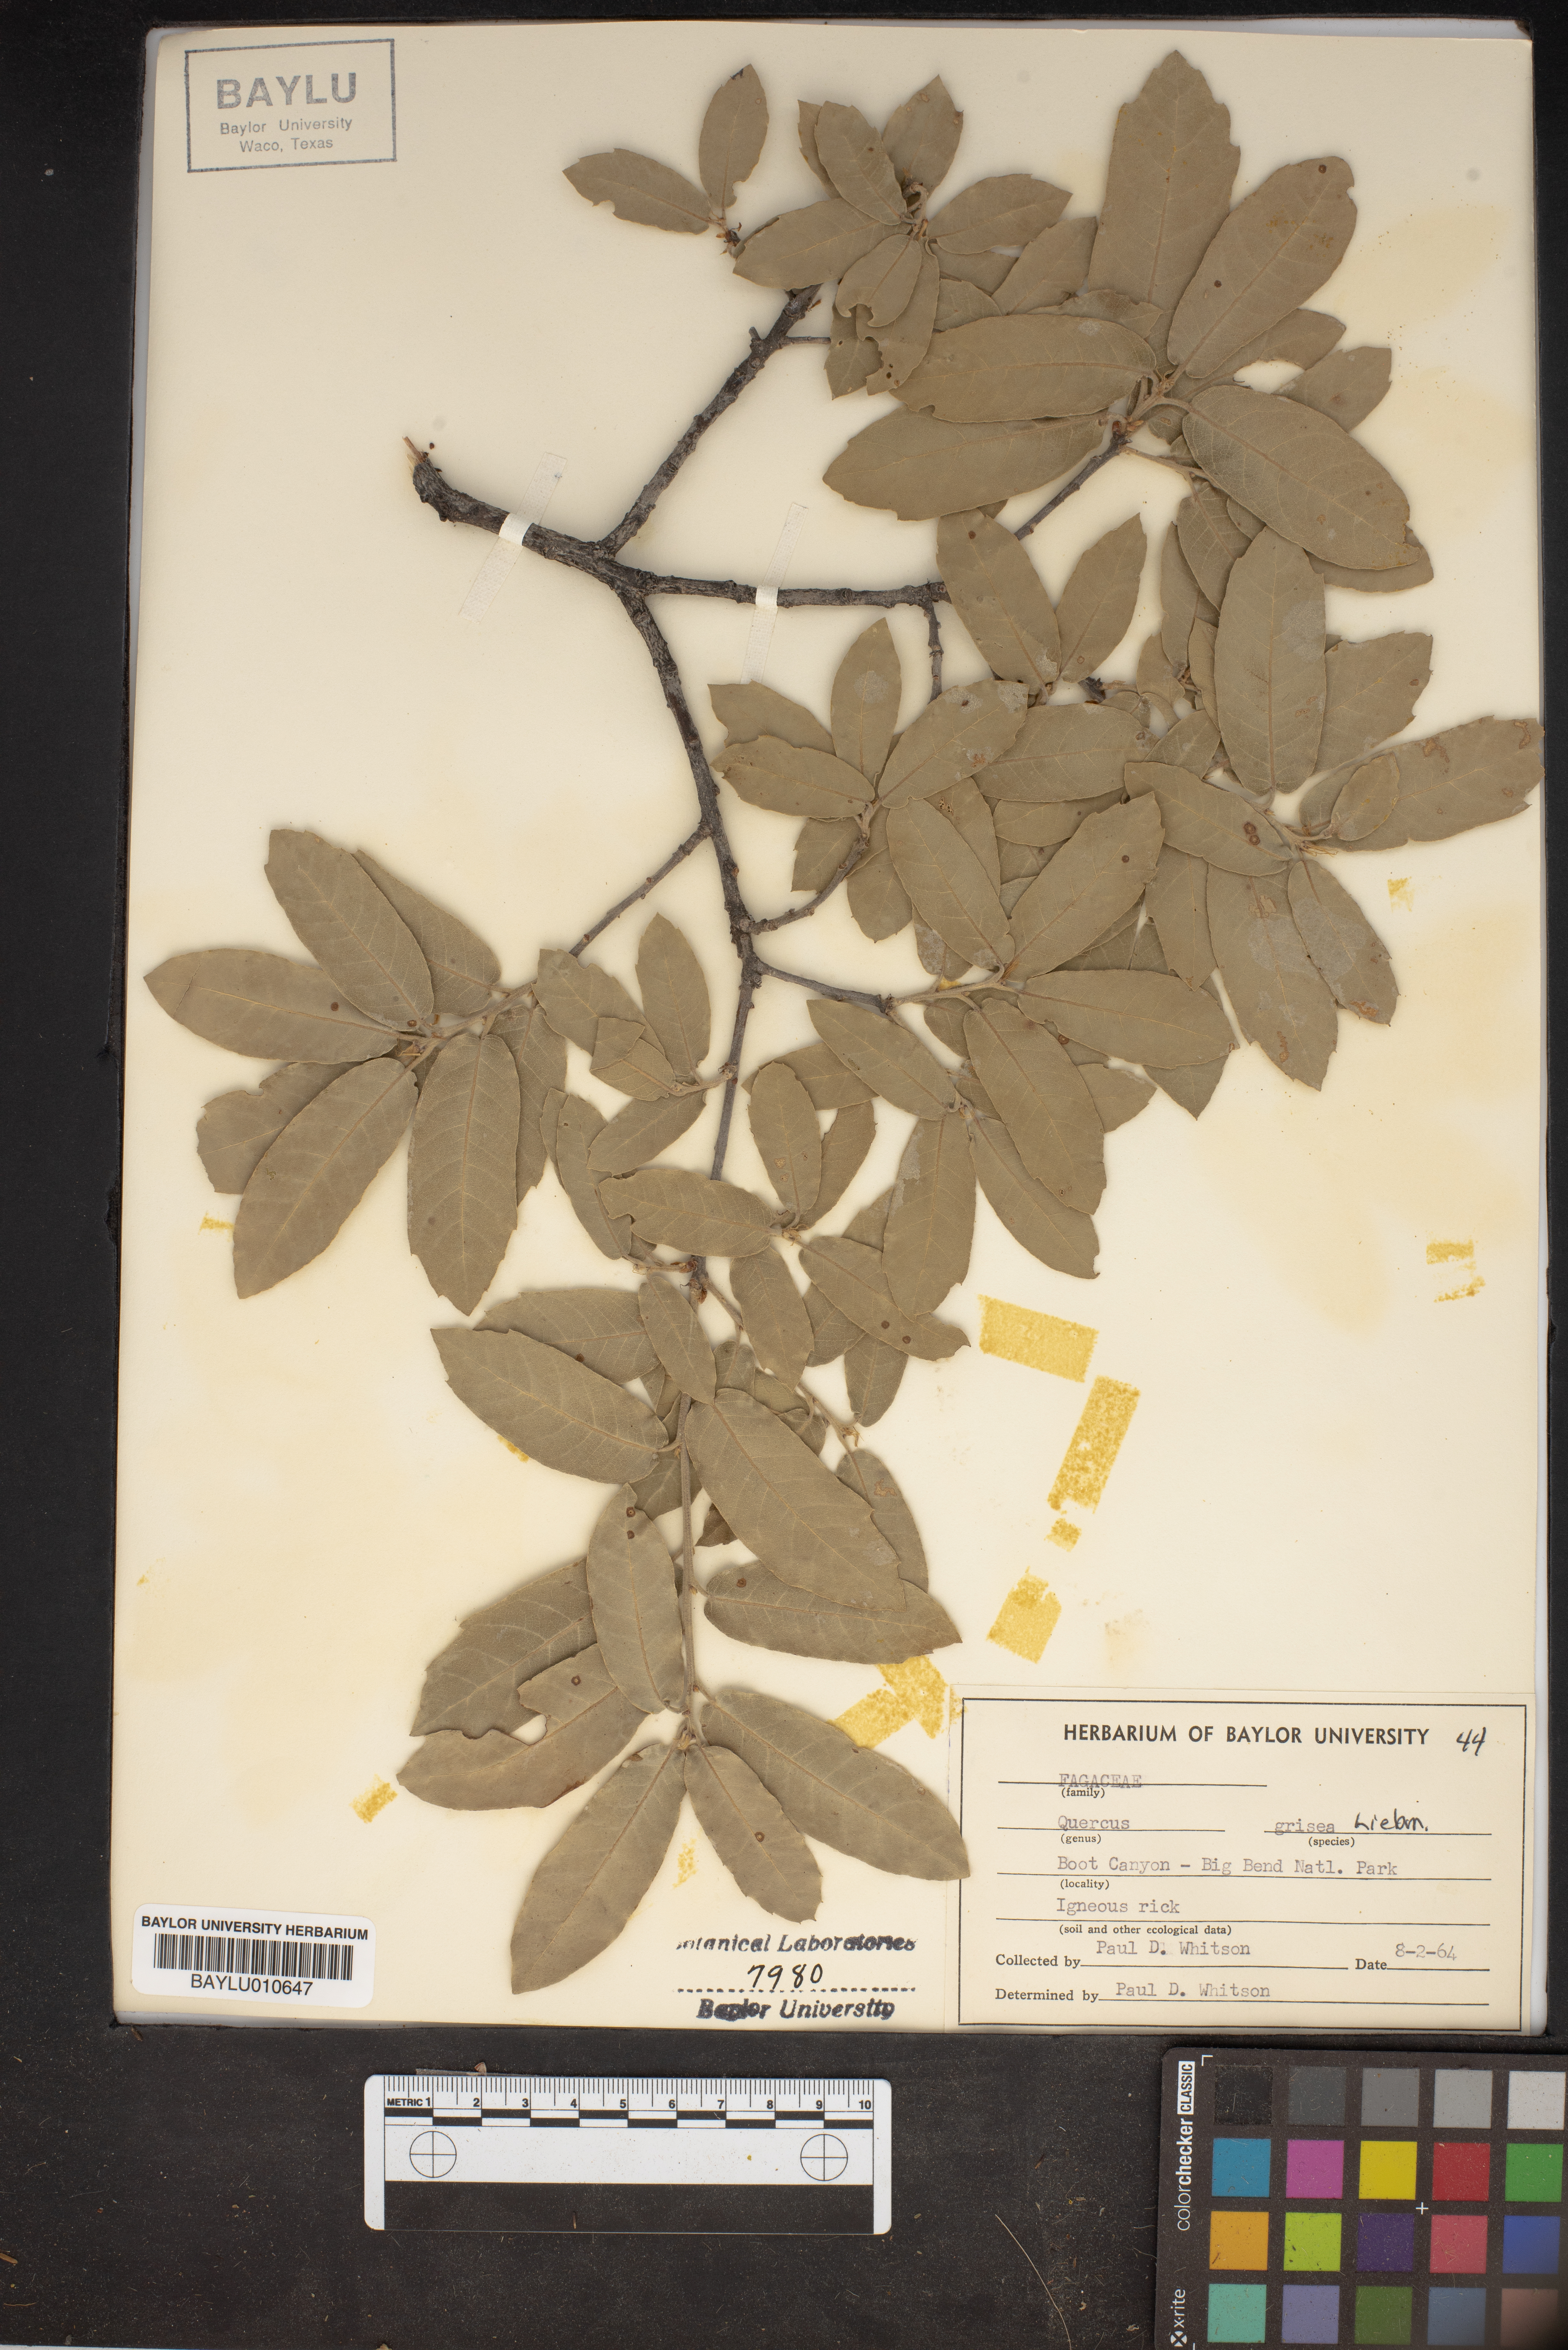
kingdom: Plantae
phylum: Tracheophyta
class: Magnoliopsida
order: Fagales
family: Fagaceae
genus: Quercus
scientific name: Quercus grisea
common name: Gray oak
